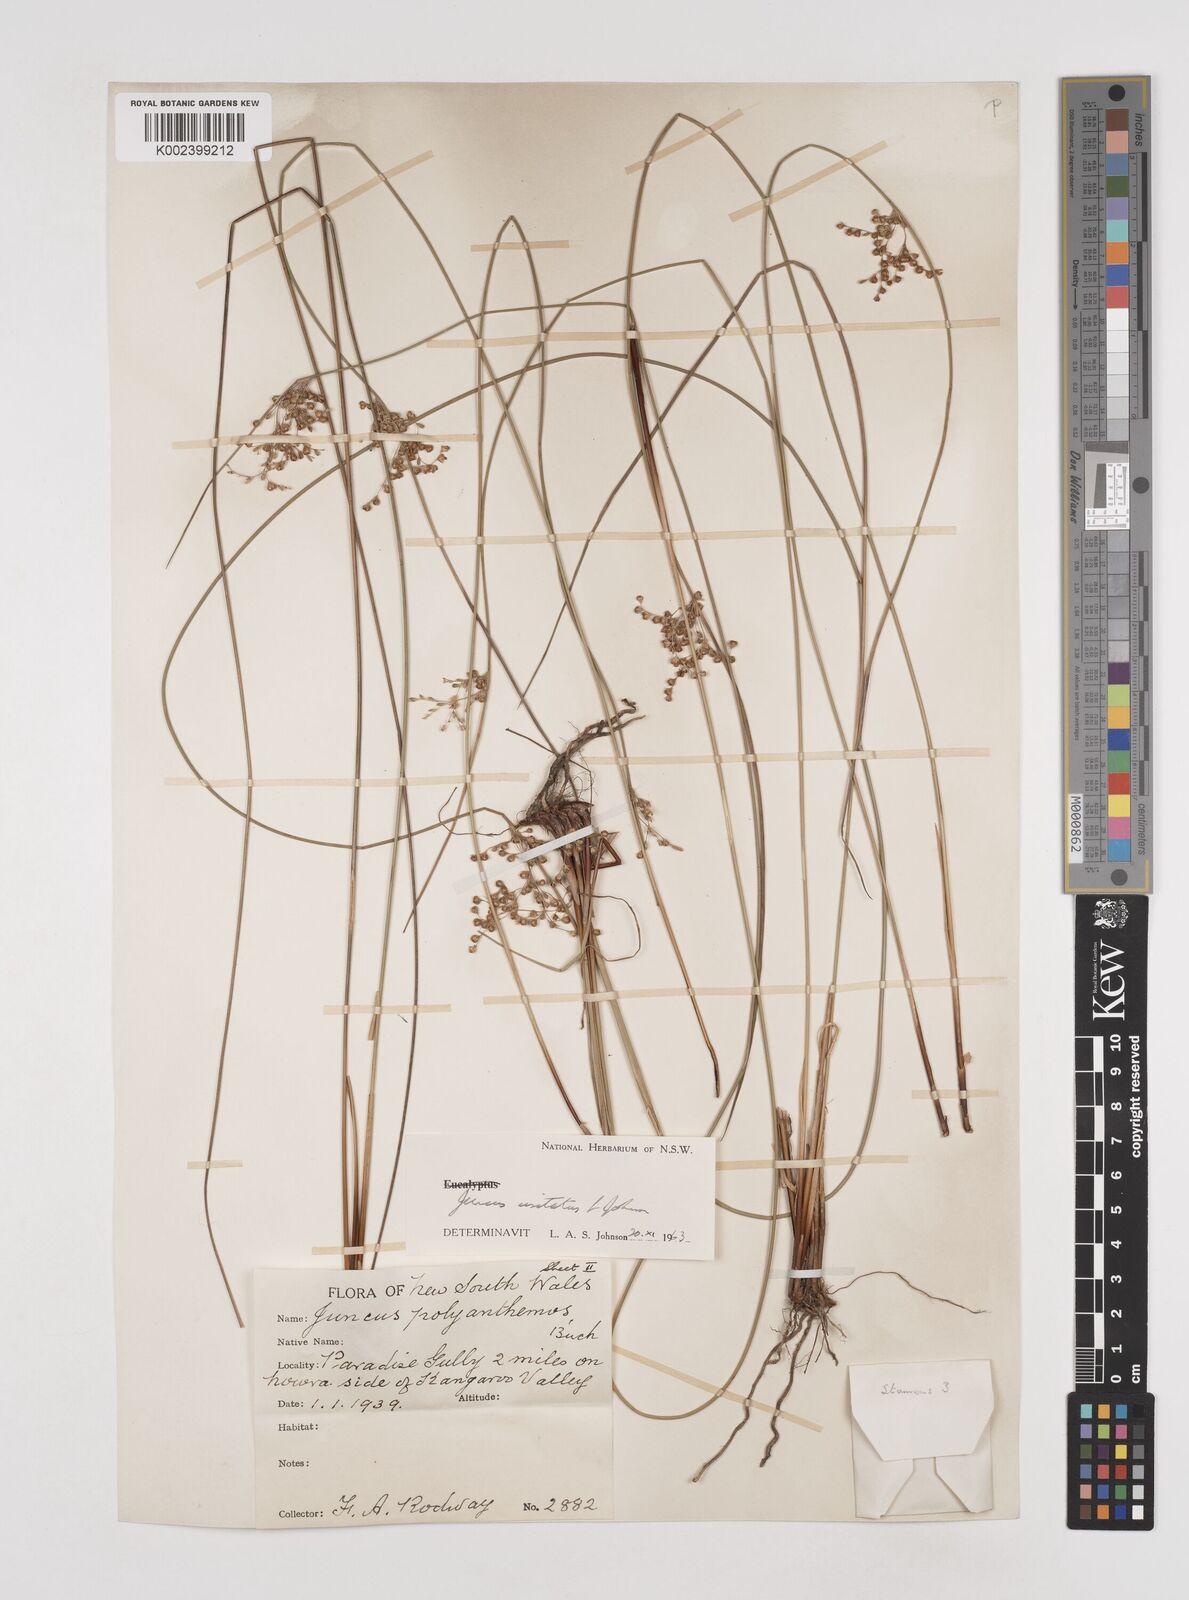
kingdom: Plantae
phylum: Tracheophyta
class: Liliopsida
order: Poales
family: Juncaceae
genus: Juncus
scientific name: Juncus usitatus
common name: Rush
